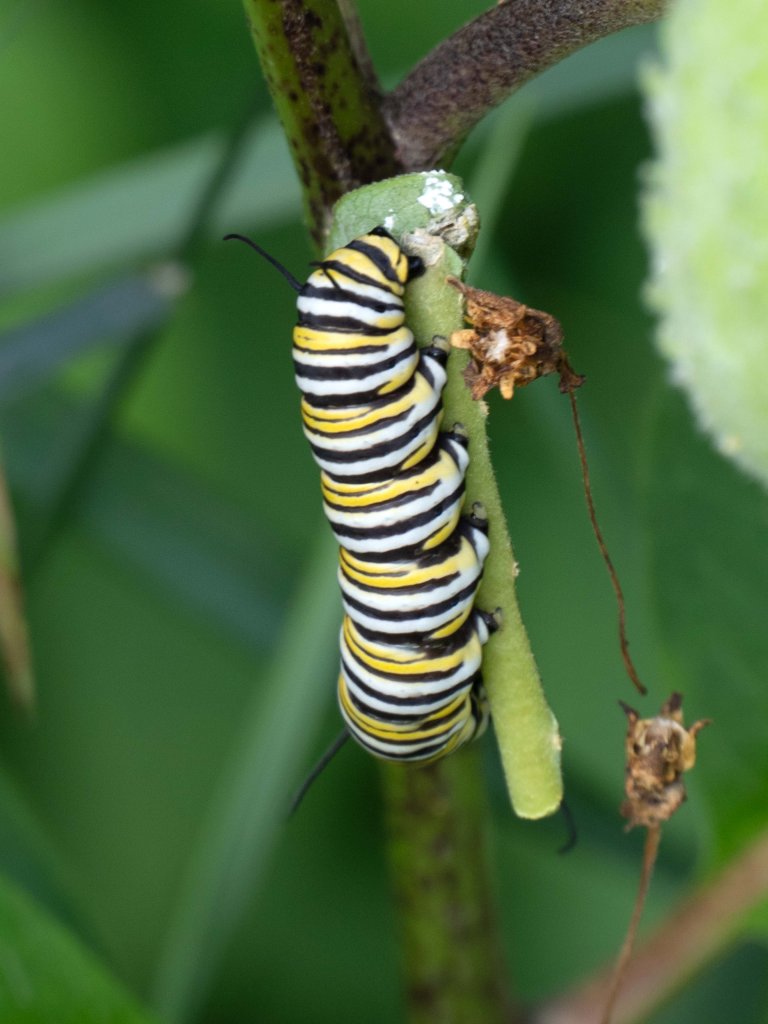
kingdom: Animalia
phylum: Arthropoda
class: Insecta
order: Lepidoptera
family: Nymphalidae
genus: Danaus
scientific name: Danaus plexippus
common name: Monarch
